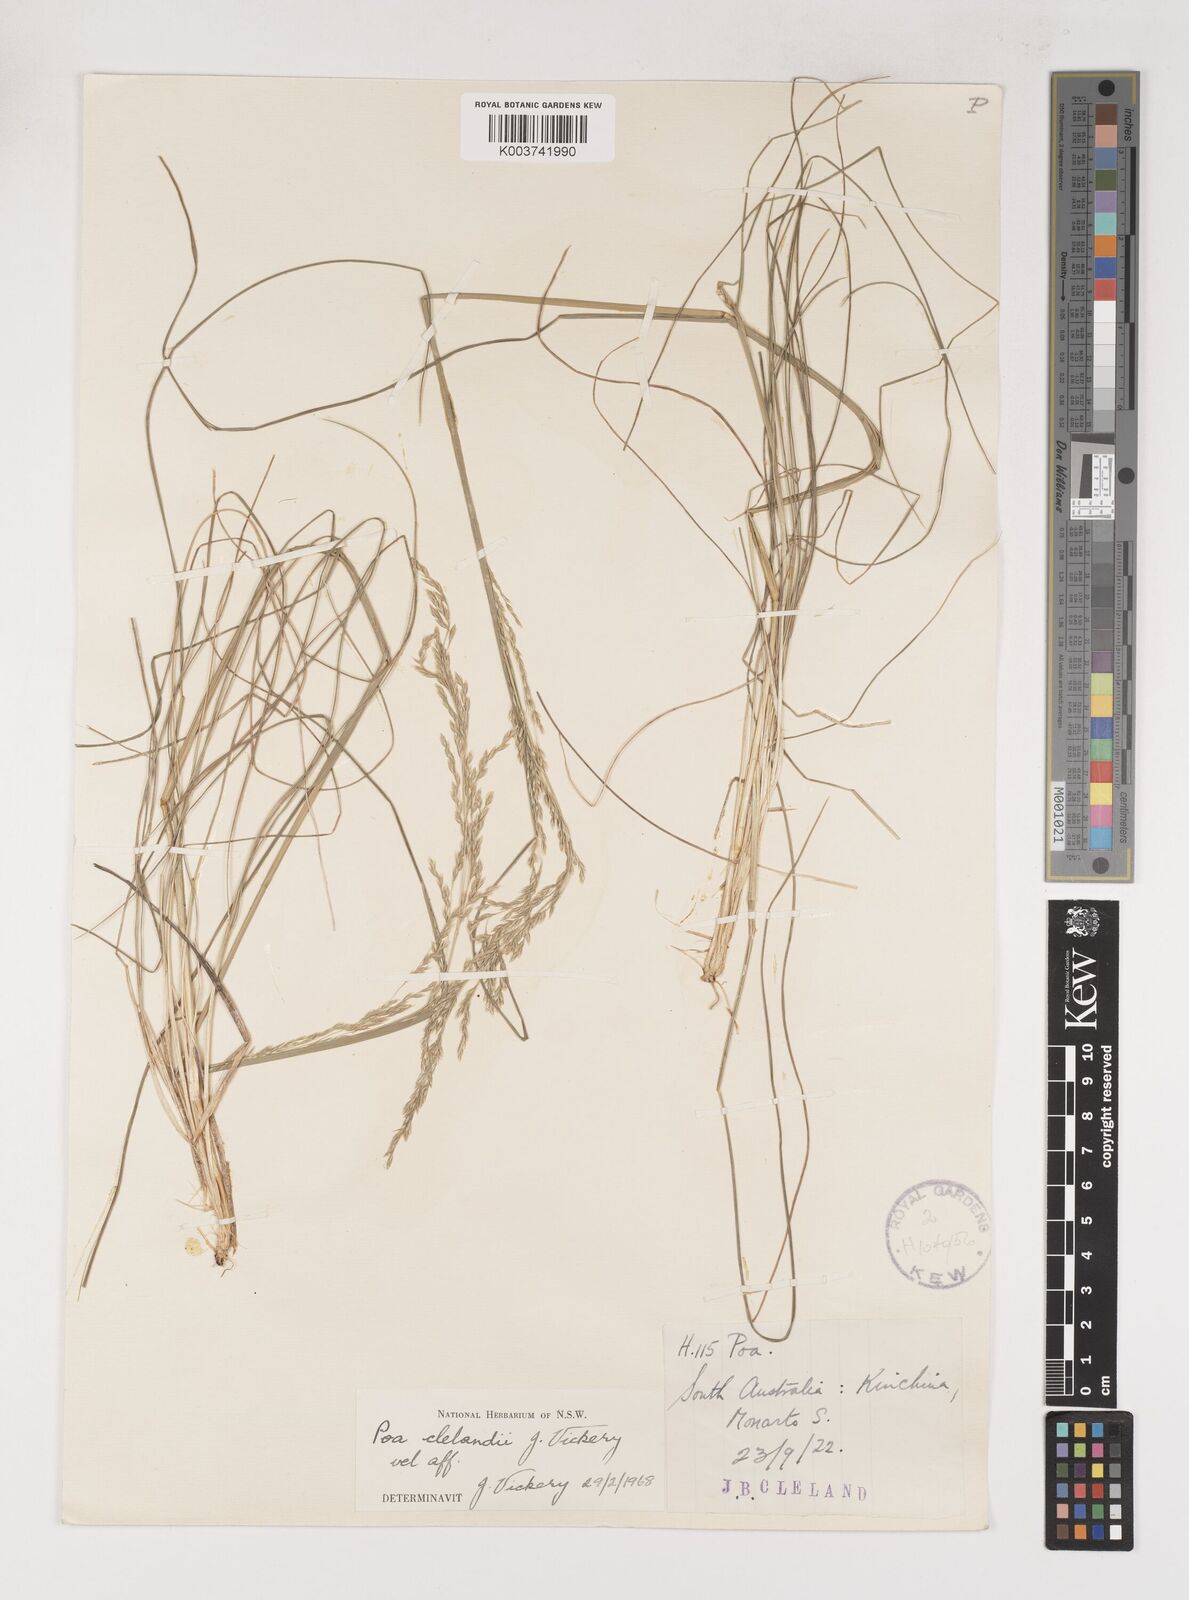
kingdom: Plantae
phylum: Tracheophyta
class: Liliopsida
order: Poales
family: Poaceae
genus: Poa
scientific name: Poa clelandii
